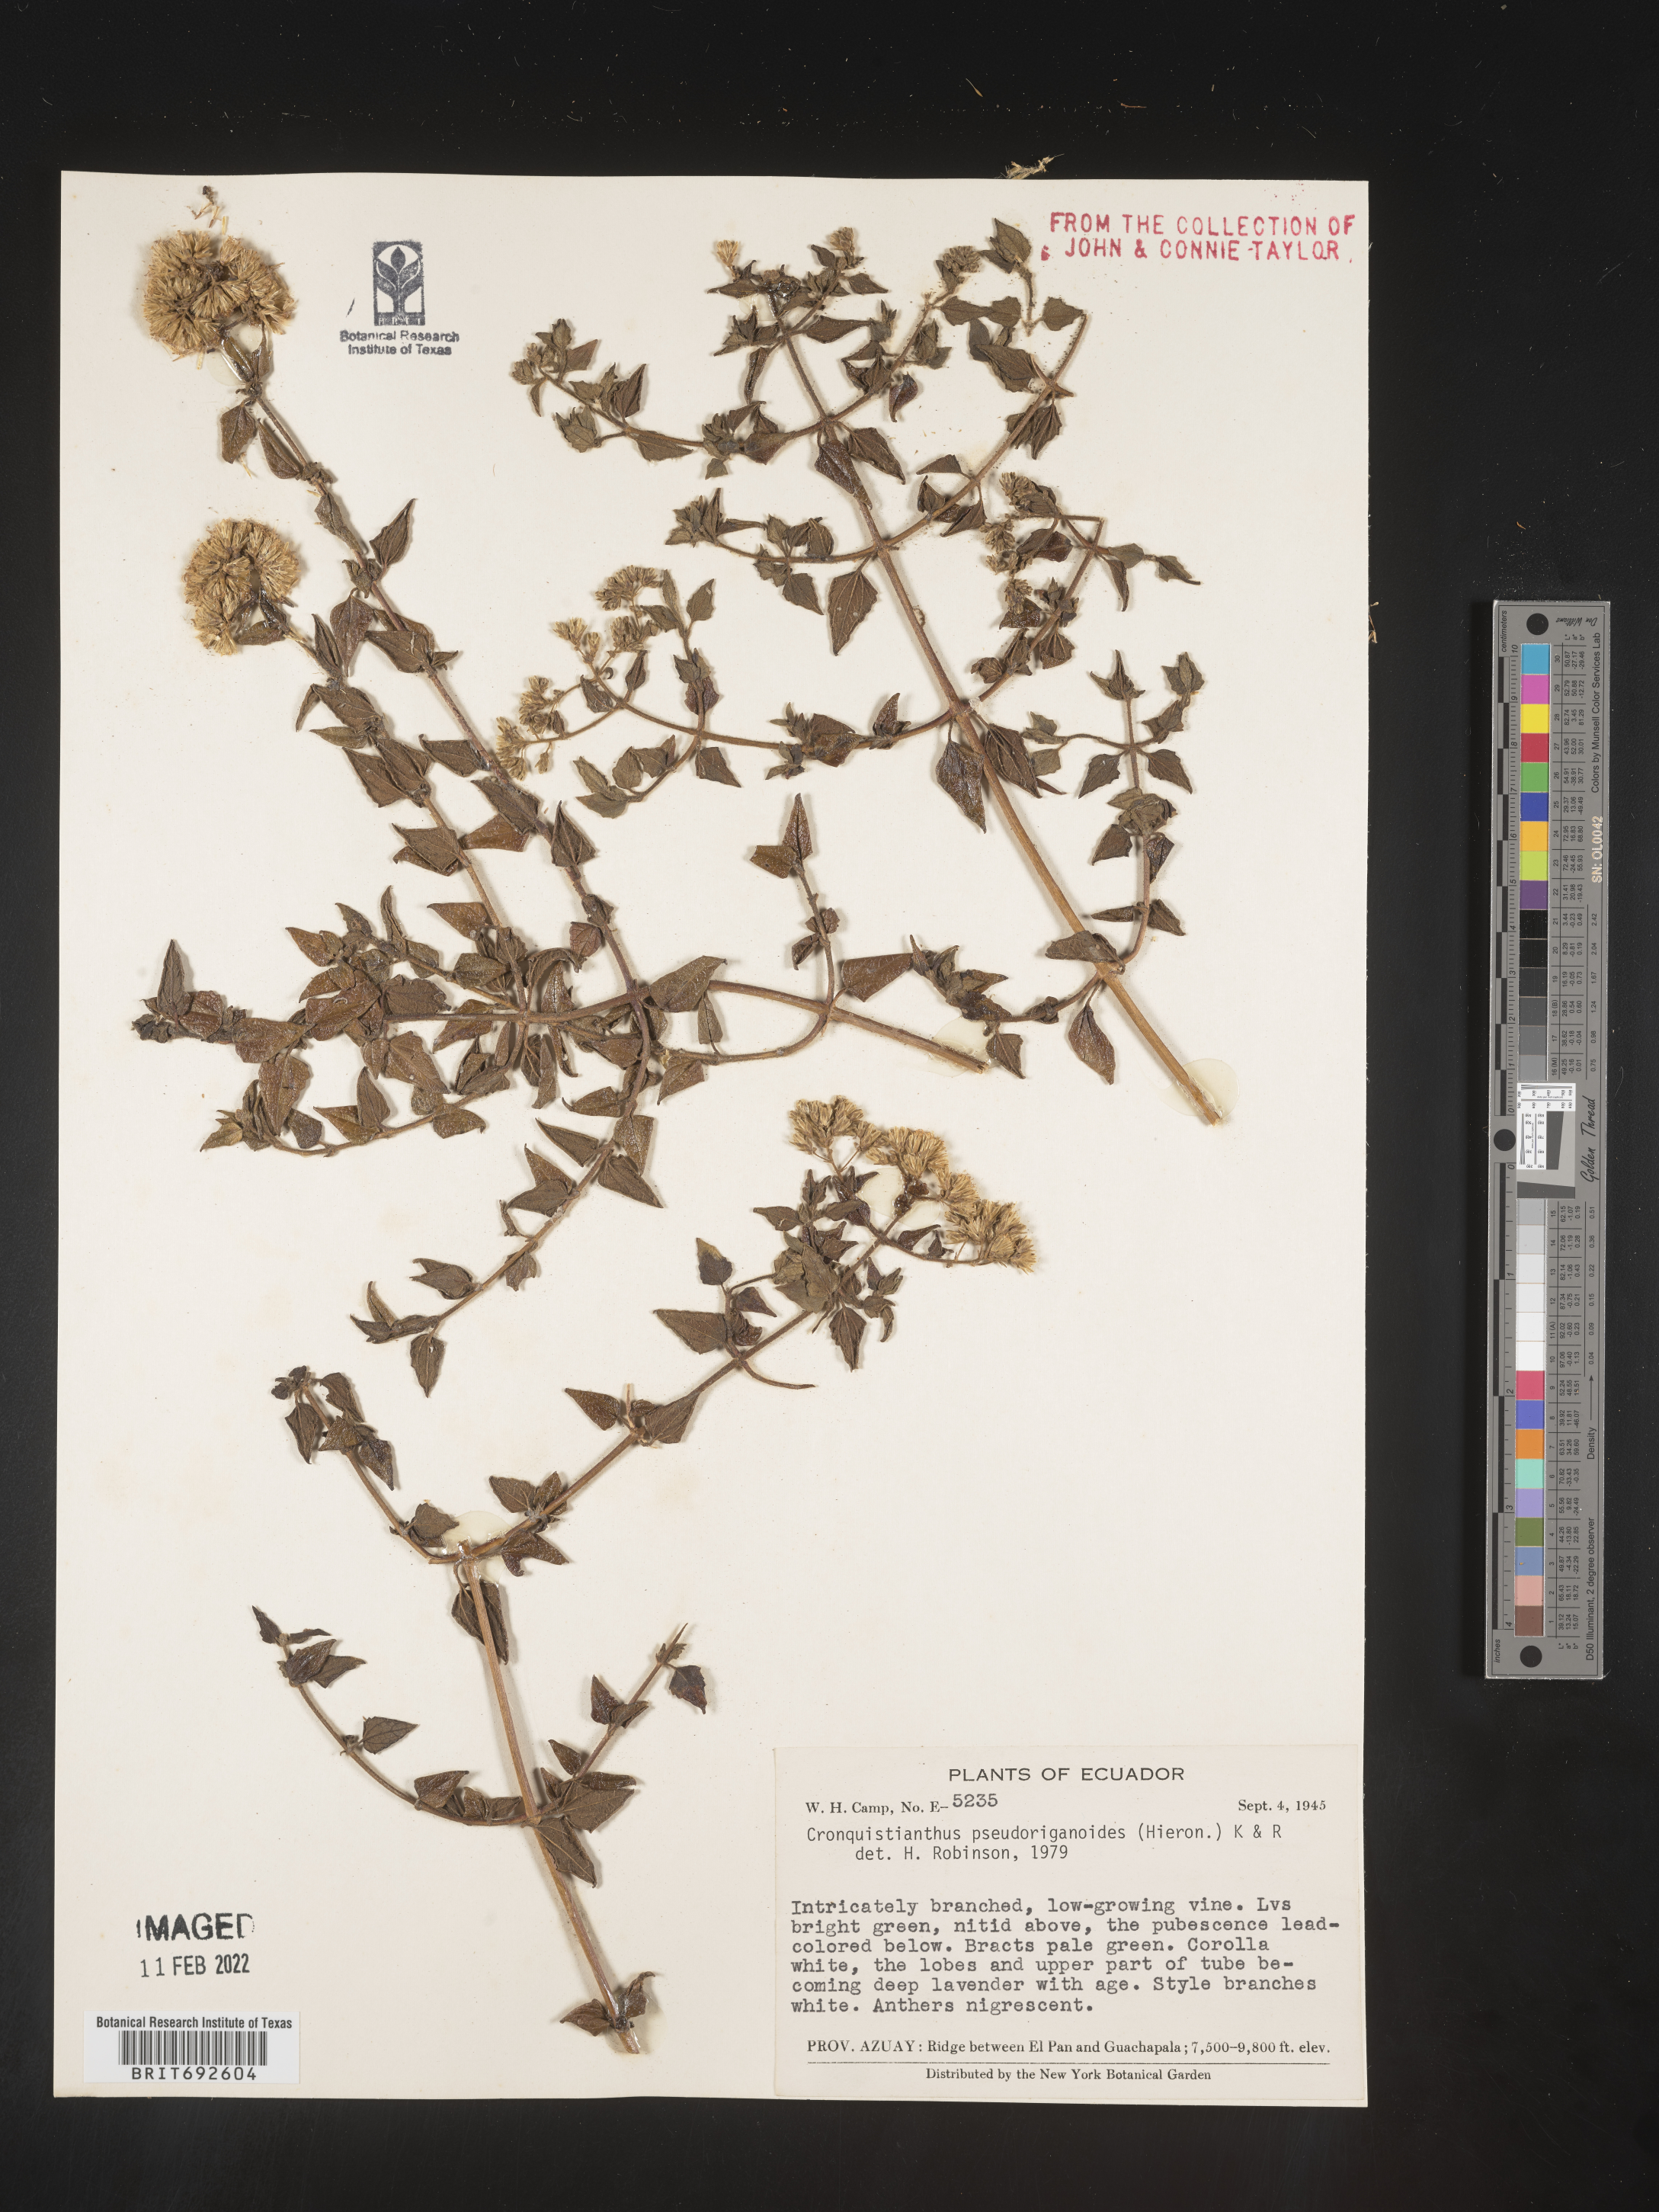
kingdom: Plantae
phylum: Tracheophyta
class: Magnoliopsida
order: Asterales
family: Asteraceae
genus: Cronquistianthus
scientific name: Cronquistianthus
